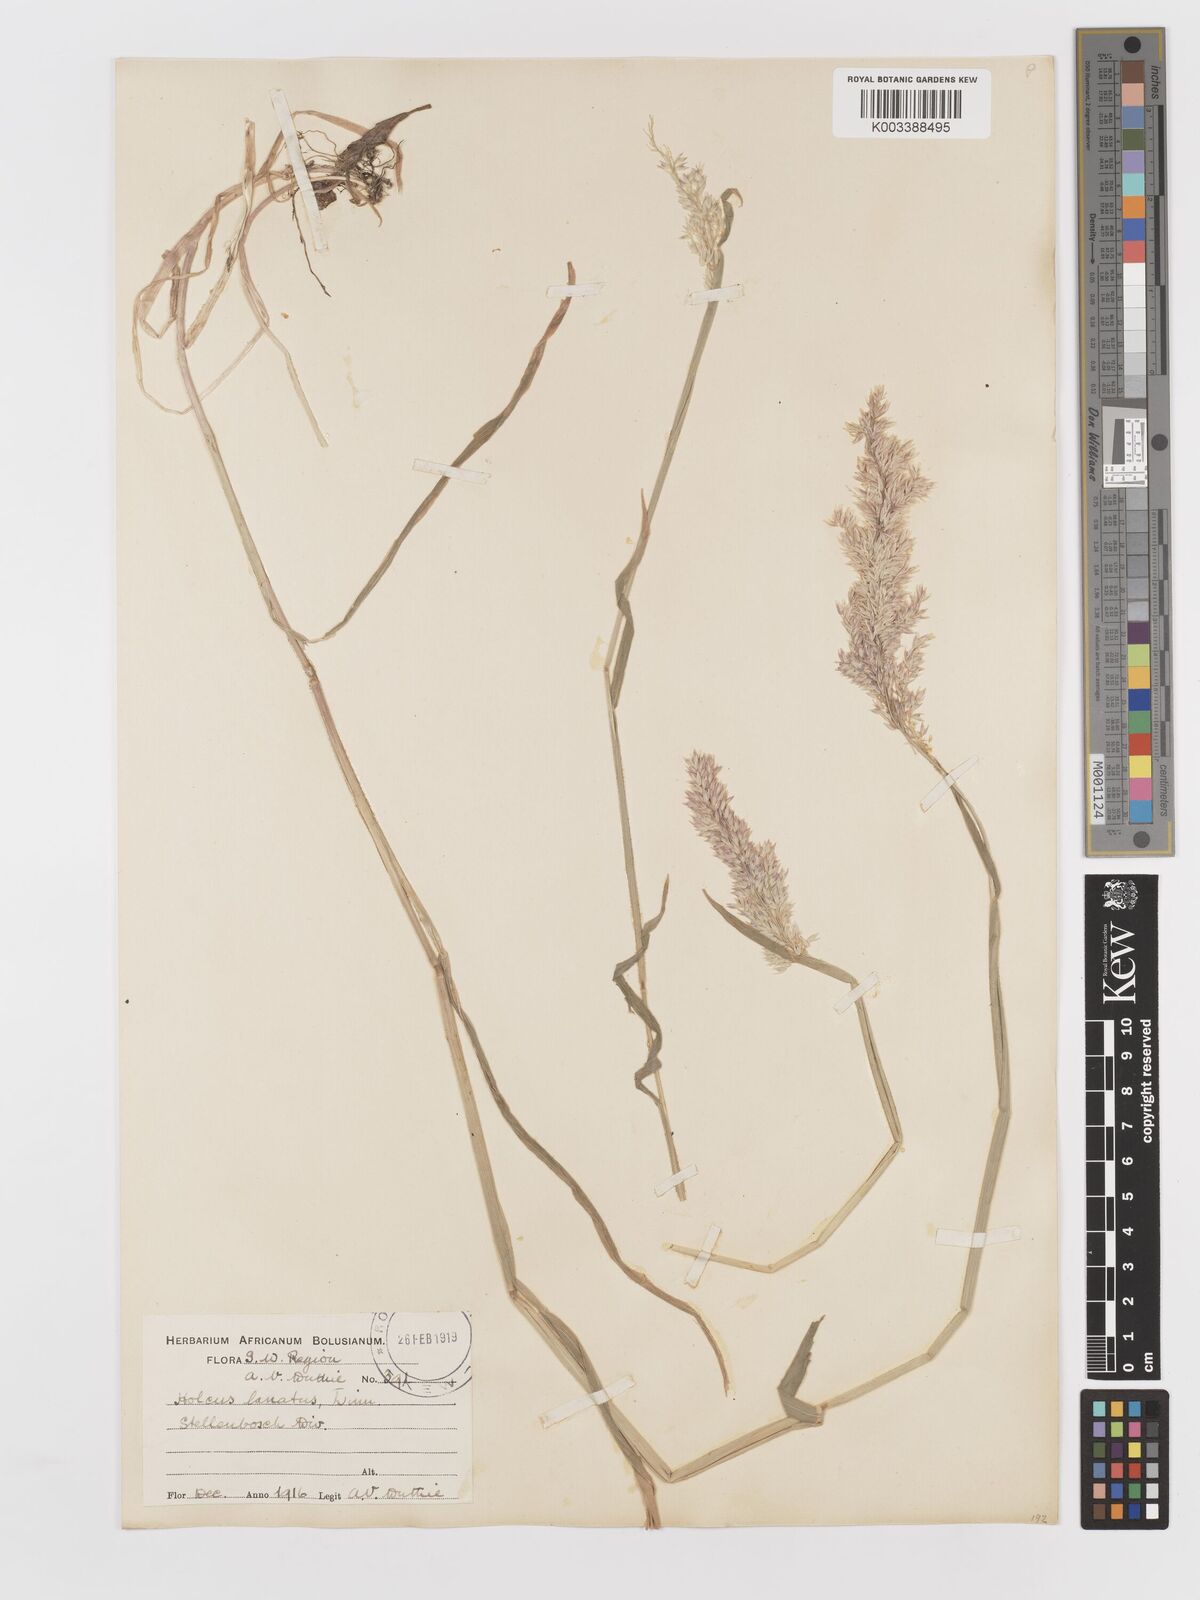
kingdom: Plantae
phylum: Tracheophyta
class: Liliopsida
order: Poales
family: Poaceae
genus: Holcus
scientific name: Holcus lanatus
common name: Yorkshire-fog
